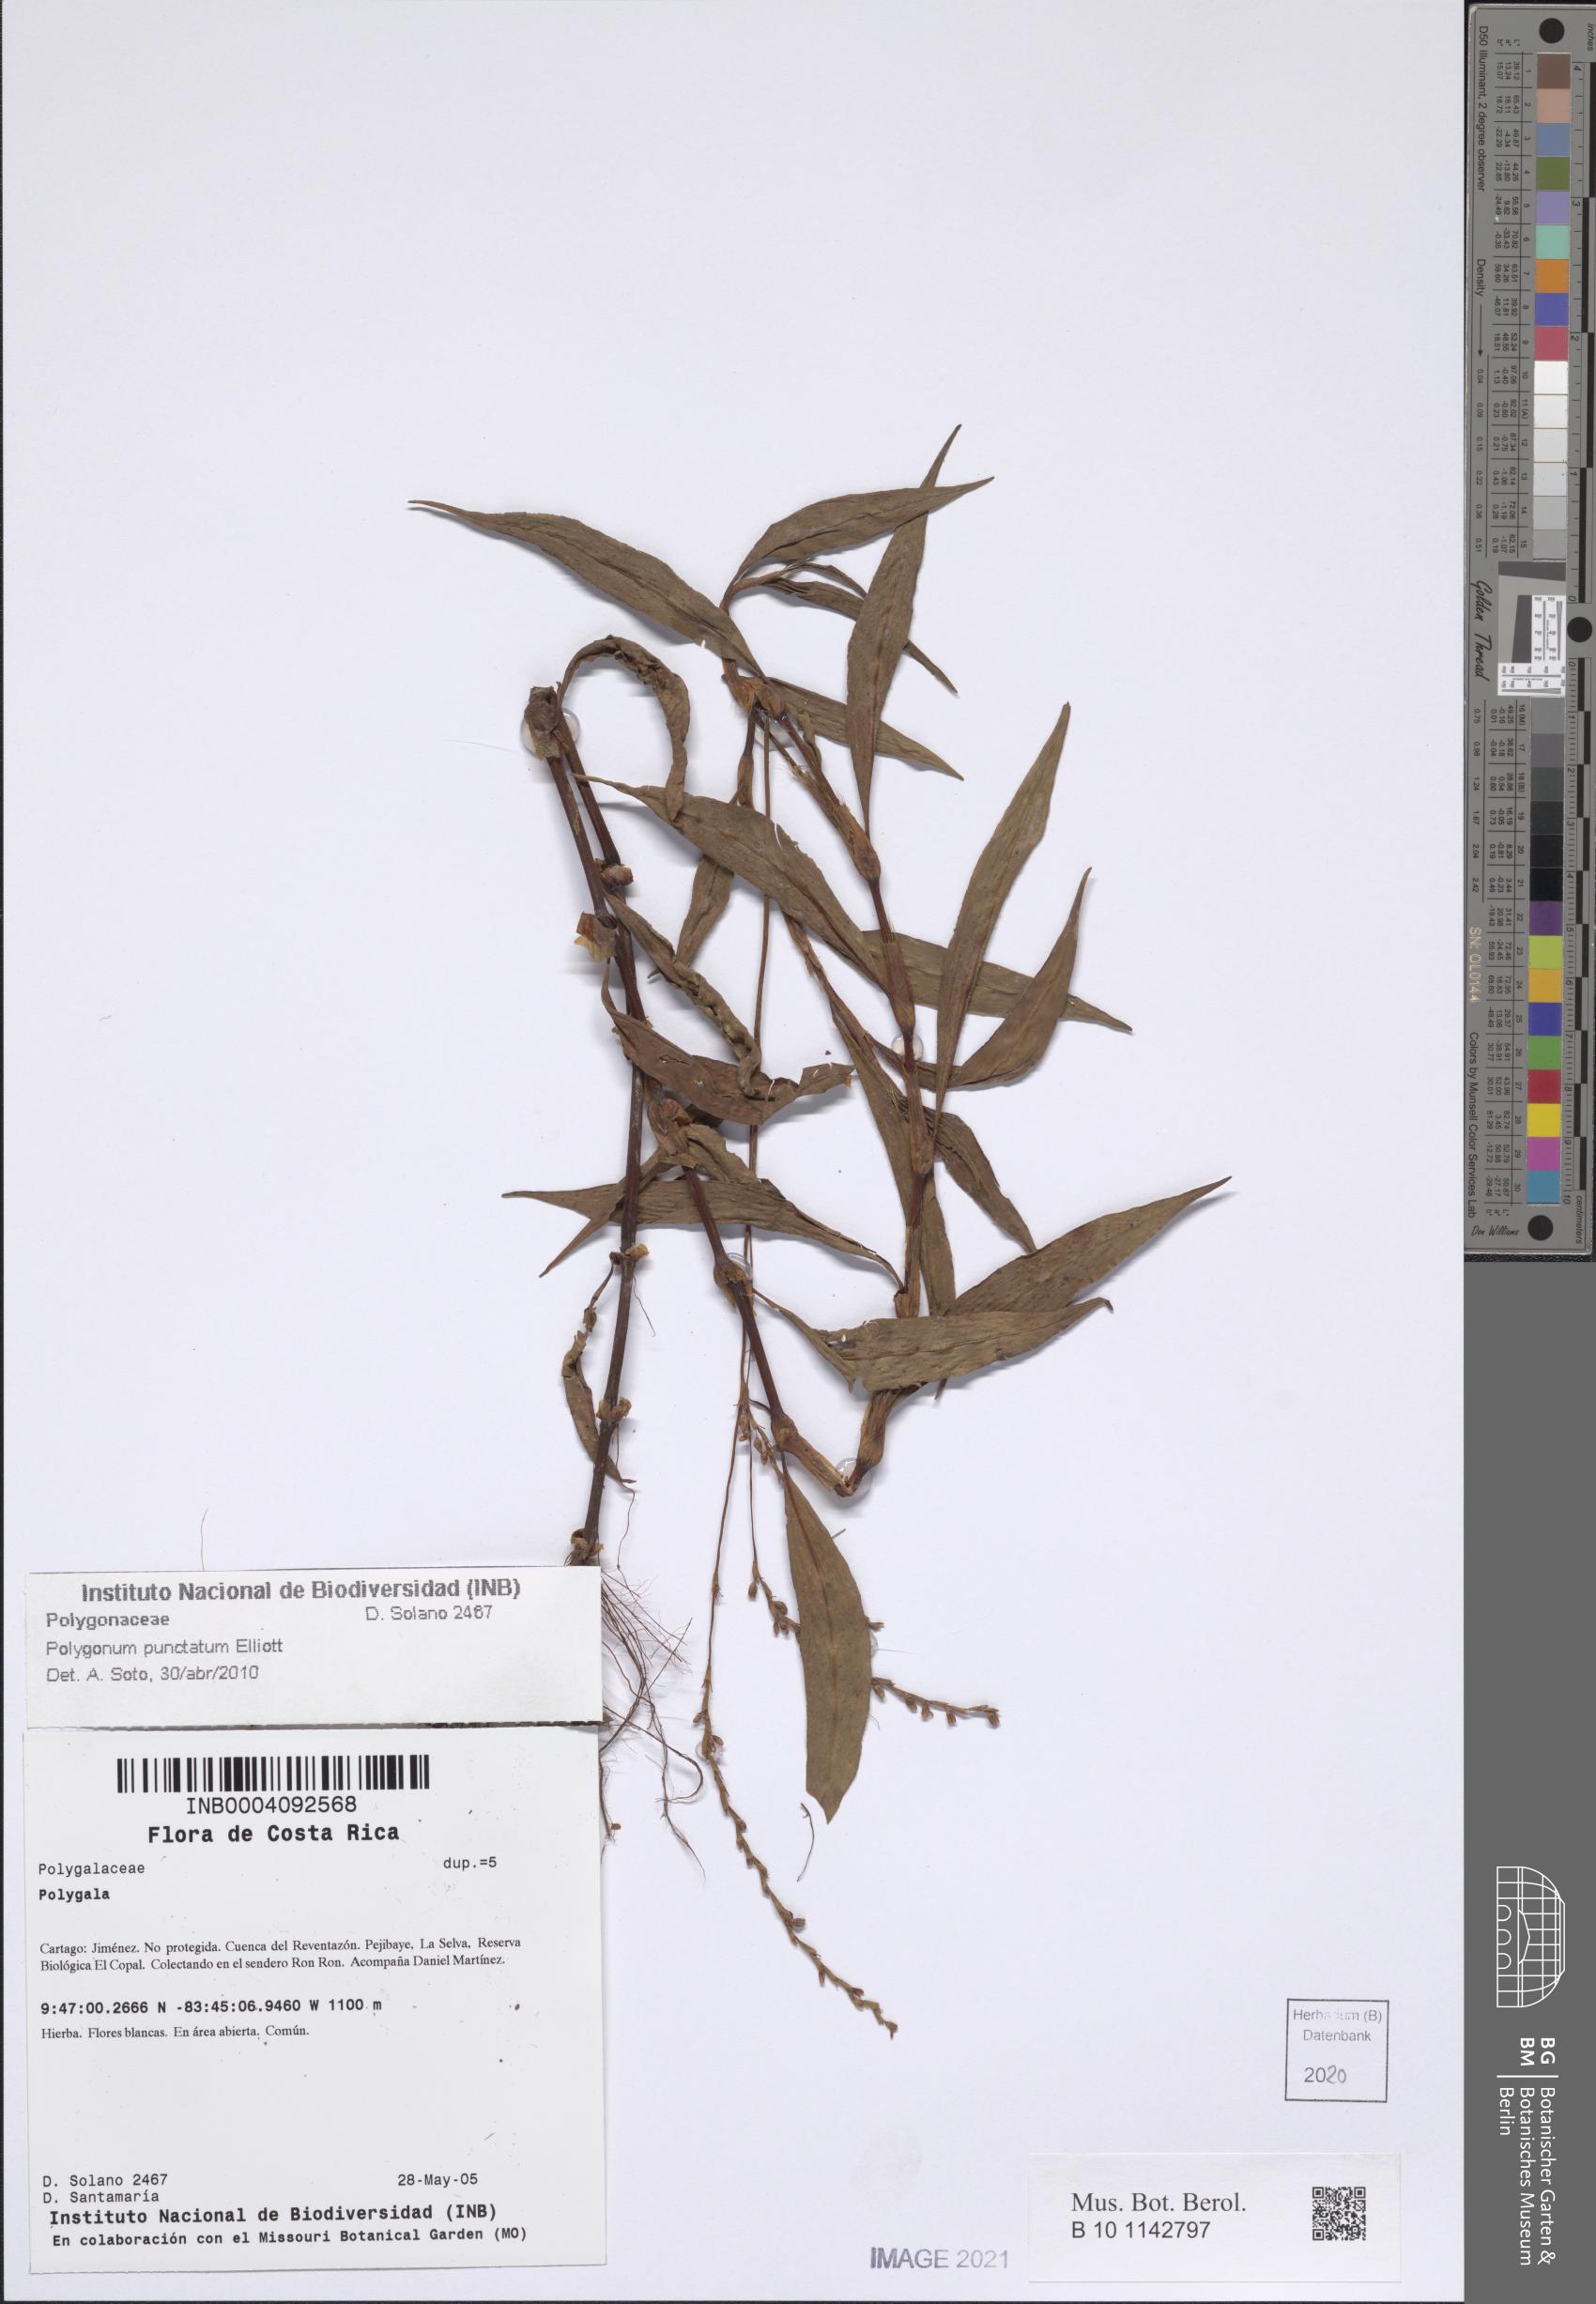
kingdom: Plantae
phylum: Tracheophyta
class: Magnoliopsida
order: Caryophyllales
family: Polygonaceae
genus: Persicaria
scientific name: Persicaria punctata
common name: Dotted smartweed
